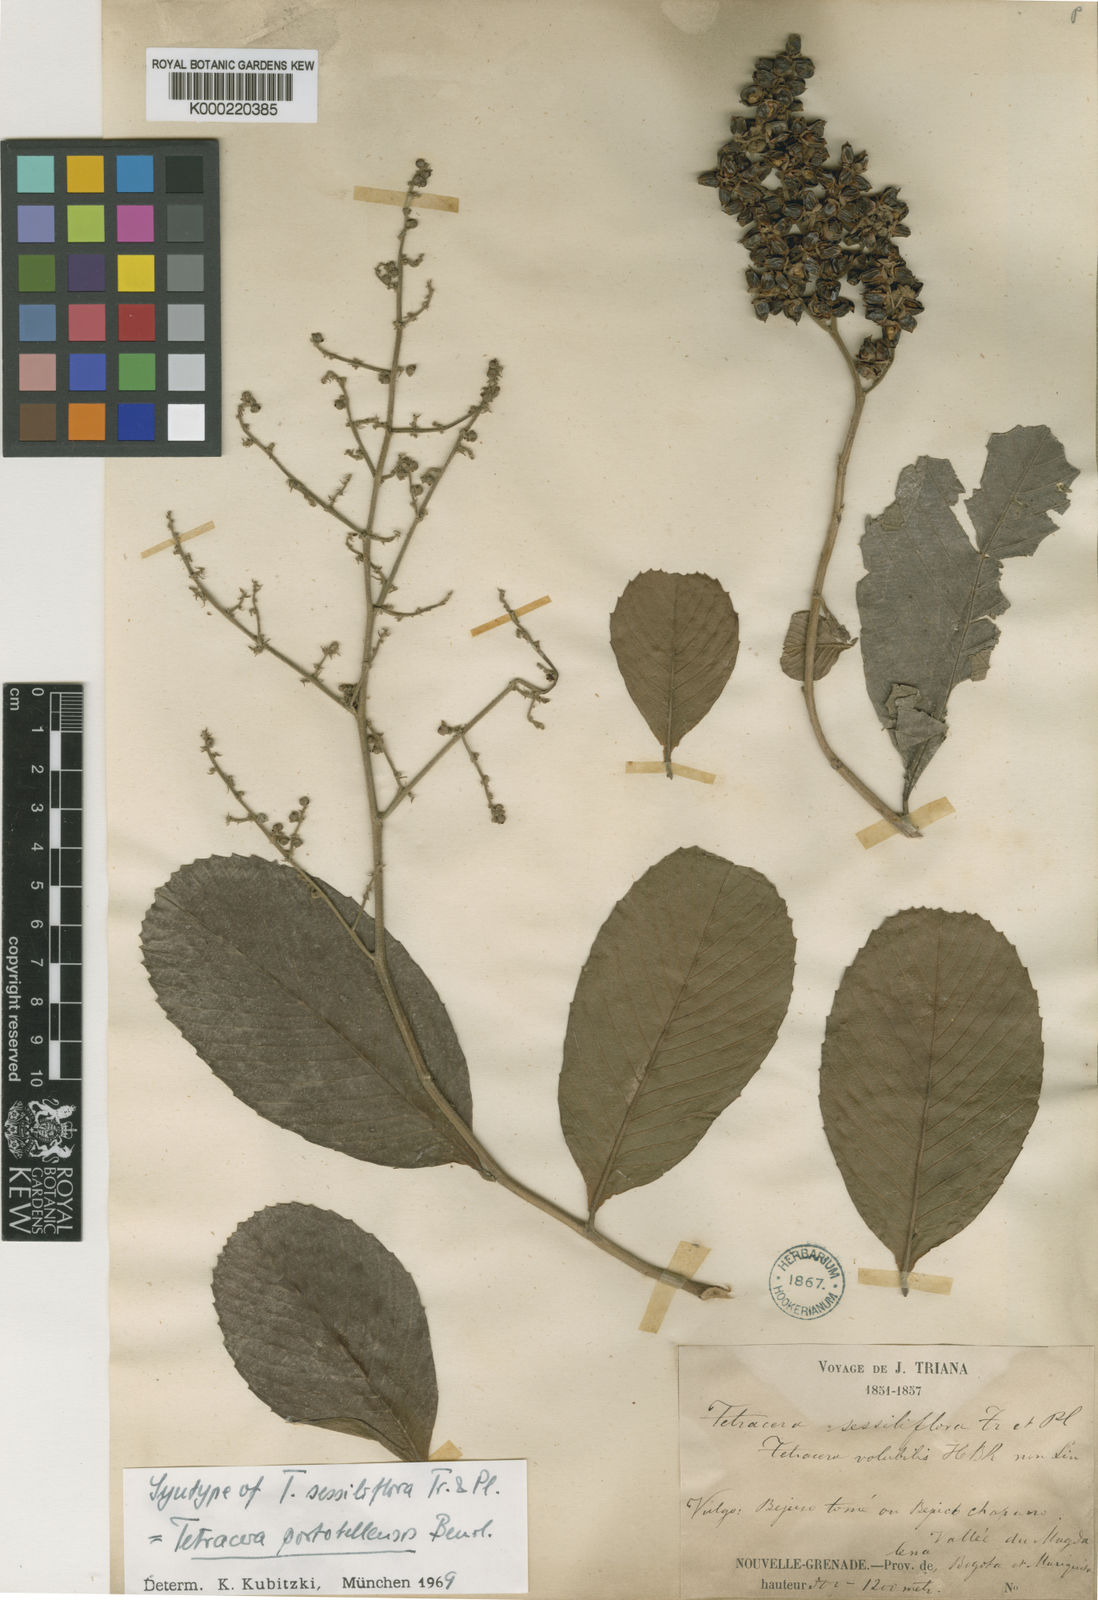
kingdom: Plantae
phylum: Tracheophyta
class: Magnoliopsida
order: Dilleniales
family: Dilleniaceae
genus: Tetracera
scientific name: Tetracera portobellensis
